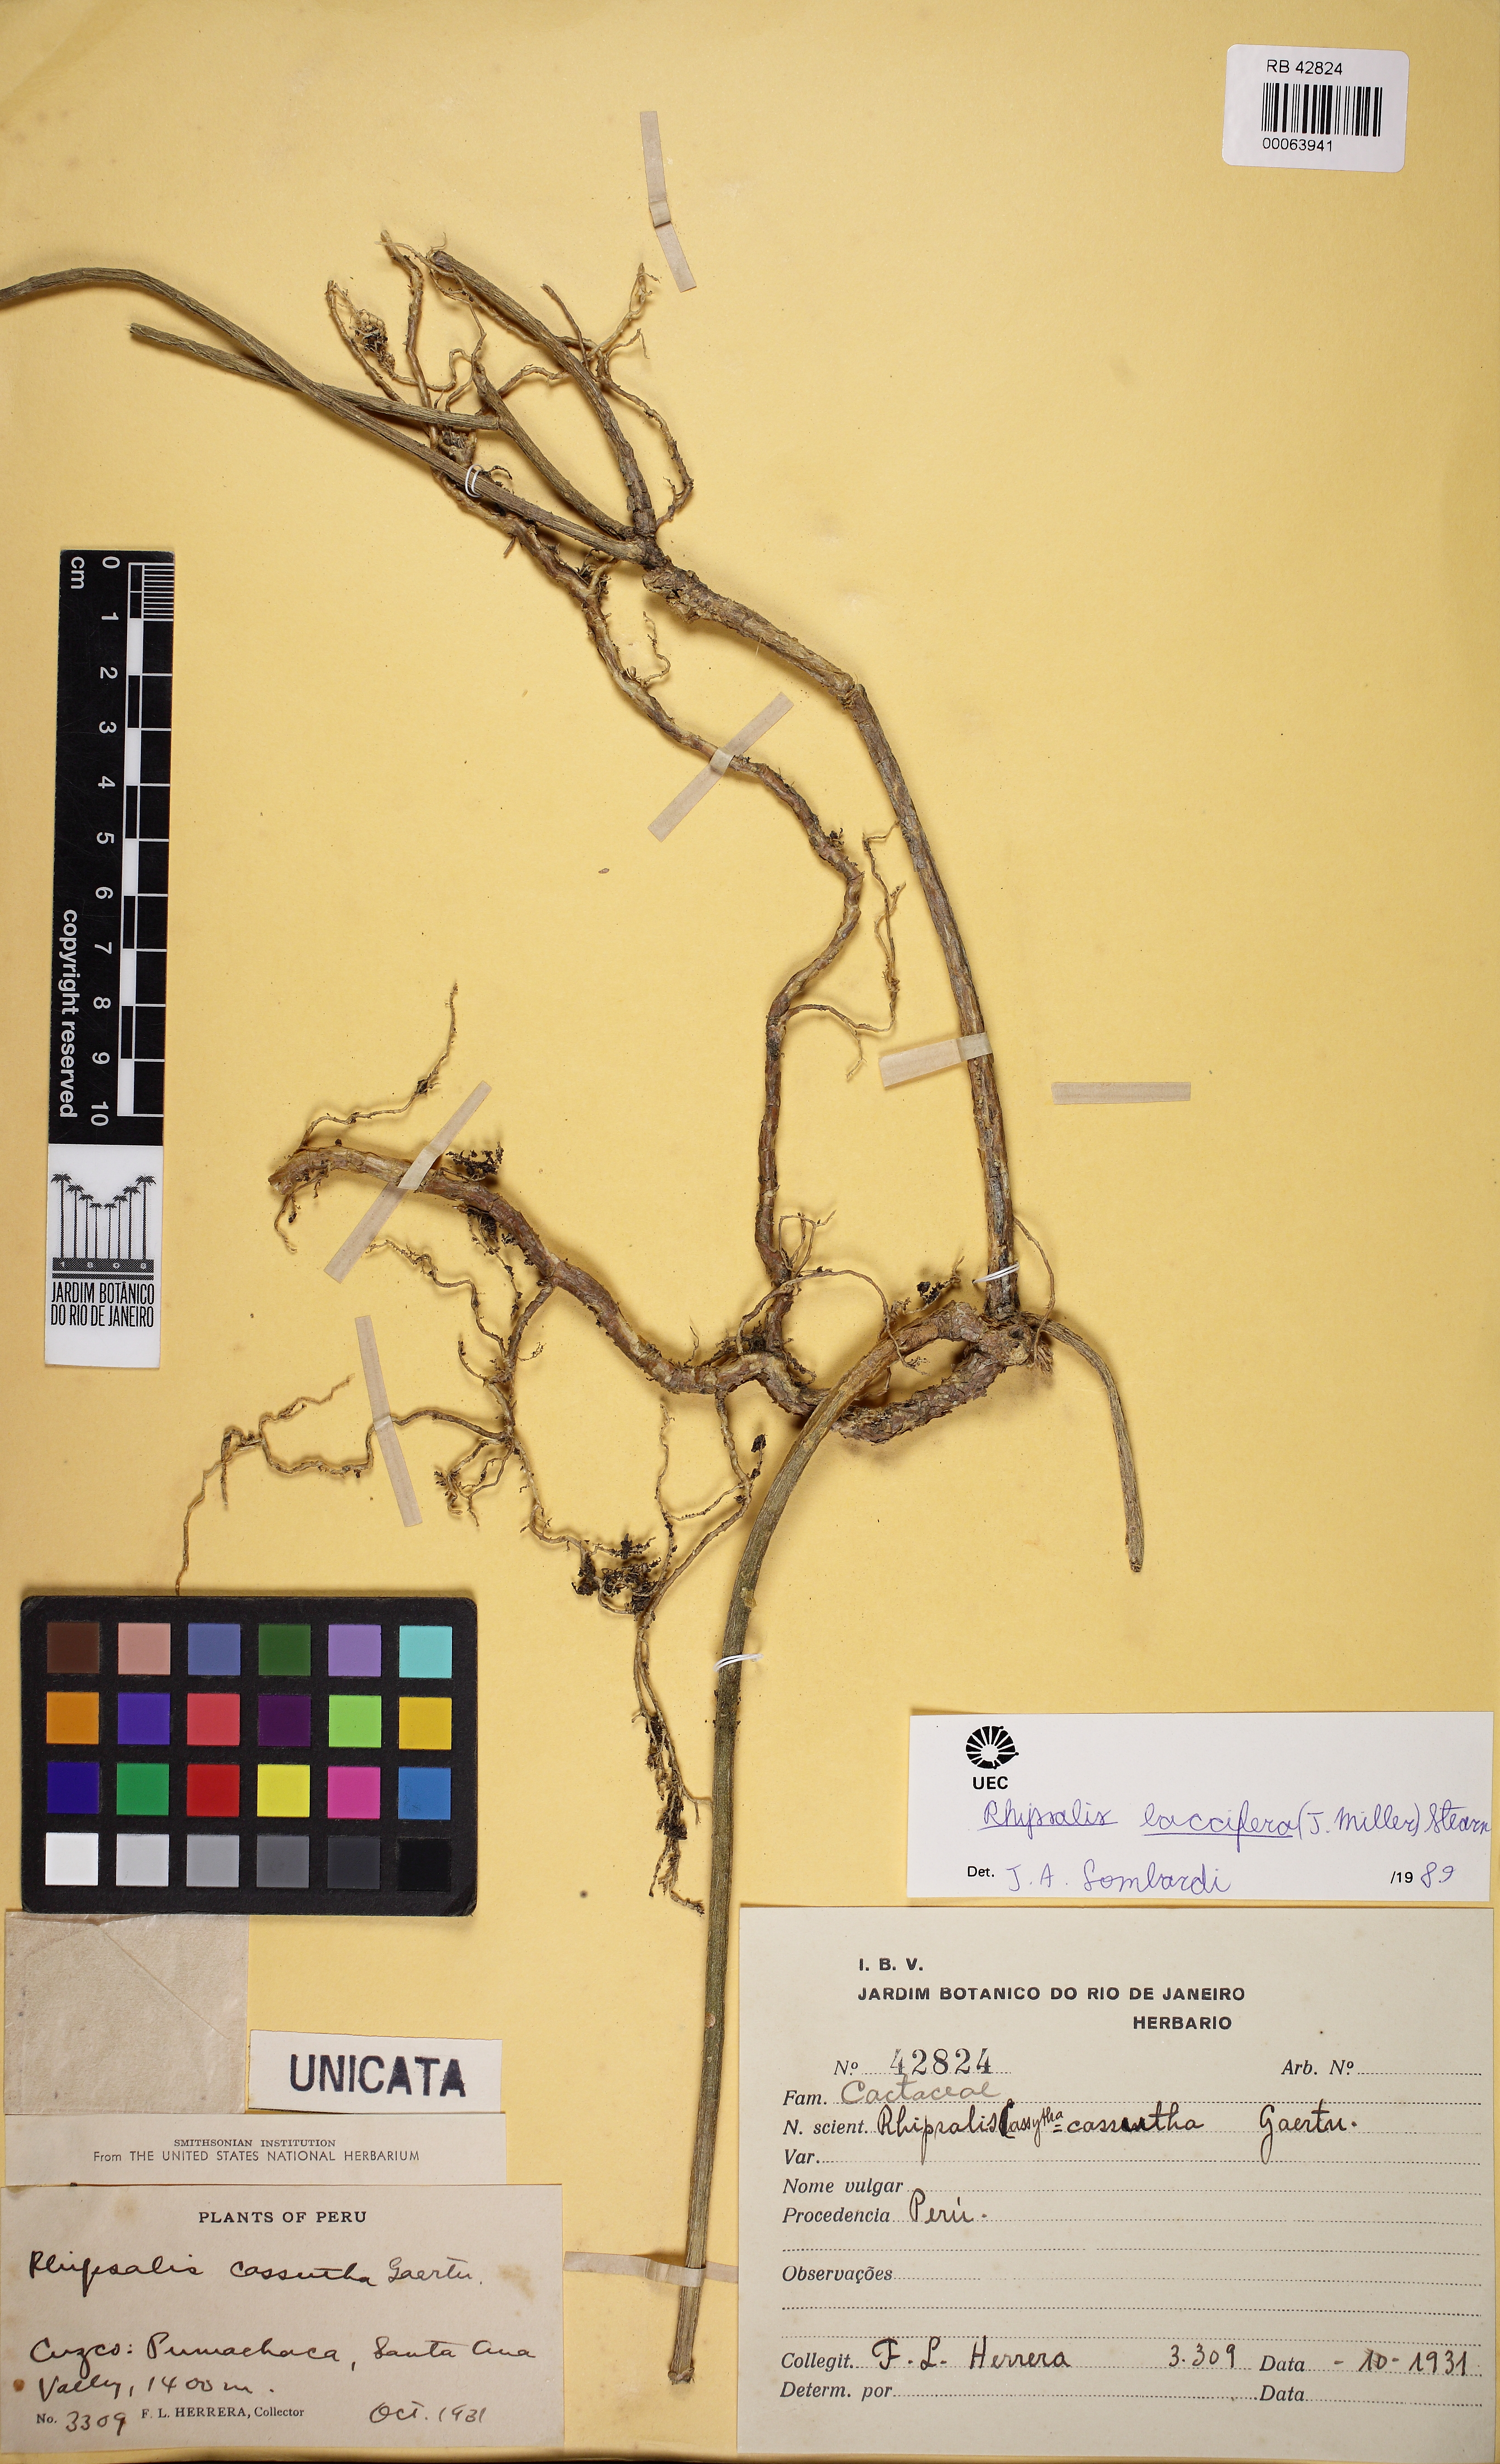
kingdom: Plantae
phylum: Tracheophyta
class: Magnoliopsida
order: Caryophyllales
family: Cactaceae
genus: Rhipsalis
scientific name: Rhipsalis baccifera
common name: Mistletoe cactus
